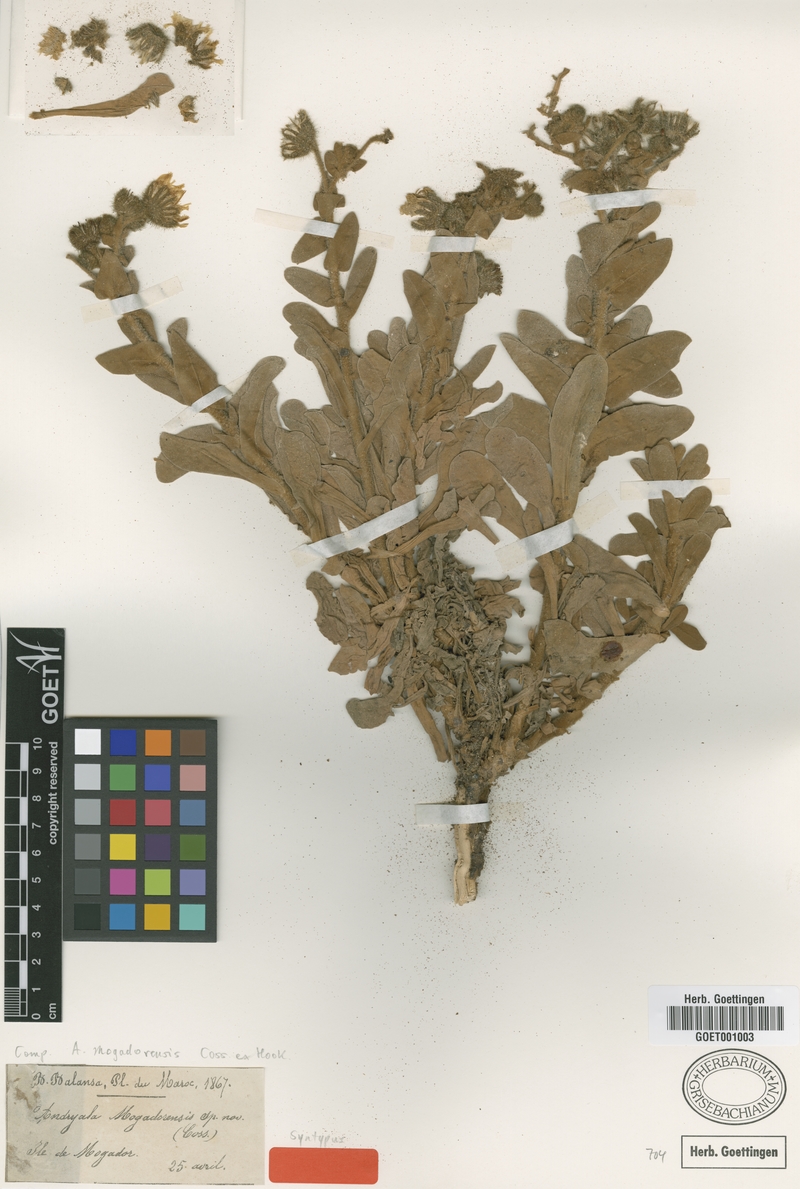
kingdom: Plantae
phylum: Tracheophyta
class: Magnoliopsida
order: Asterales
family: Asteraceae
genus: Andryala
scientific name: Andryala mogadorensis
